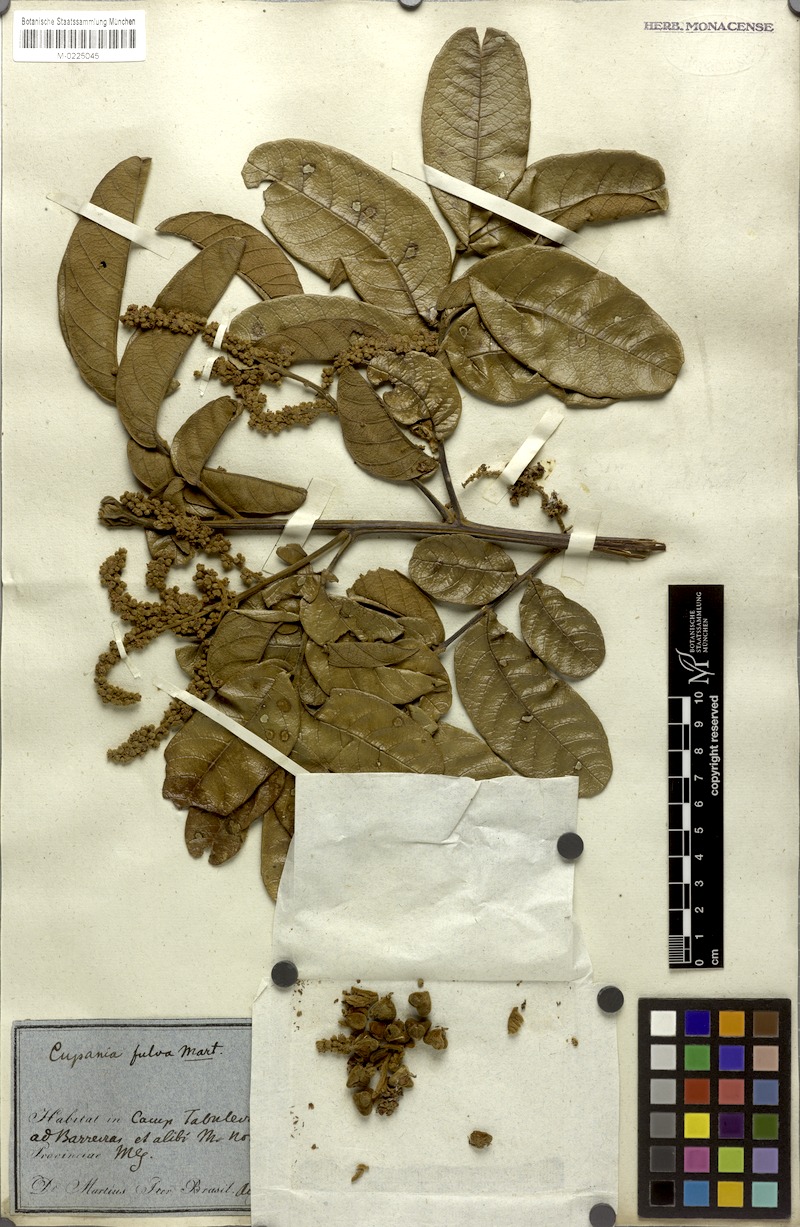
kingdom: Plantae
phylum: Tracheophyta
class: Magnoliopsida
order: Sapindales
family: Sapindaceae
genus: Cupania
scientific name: Cupania paniculata
